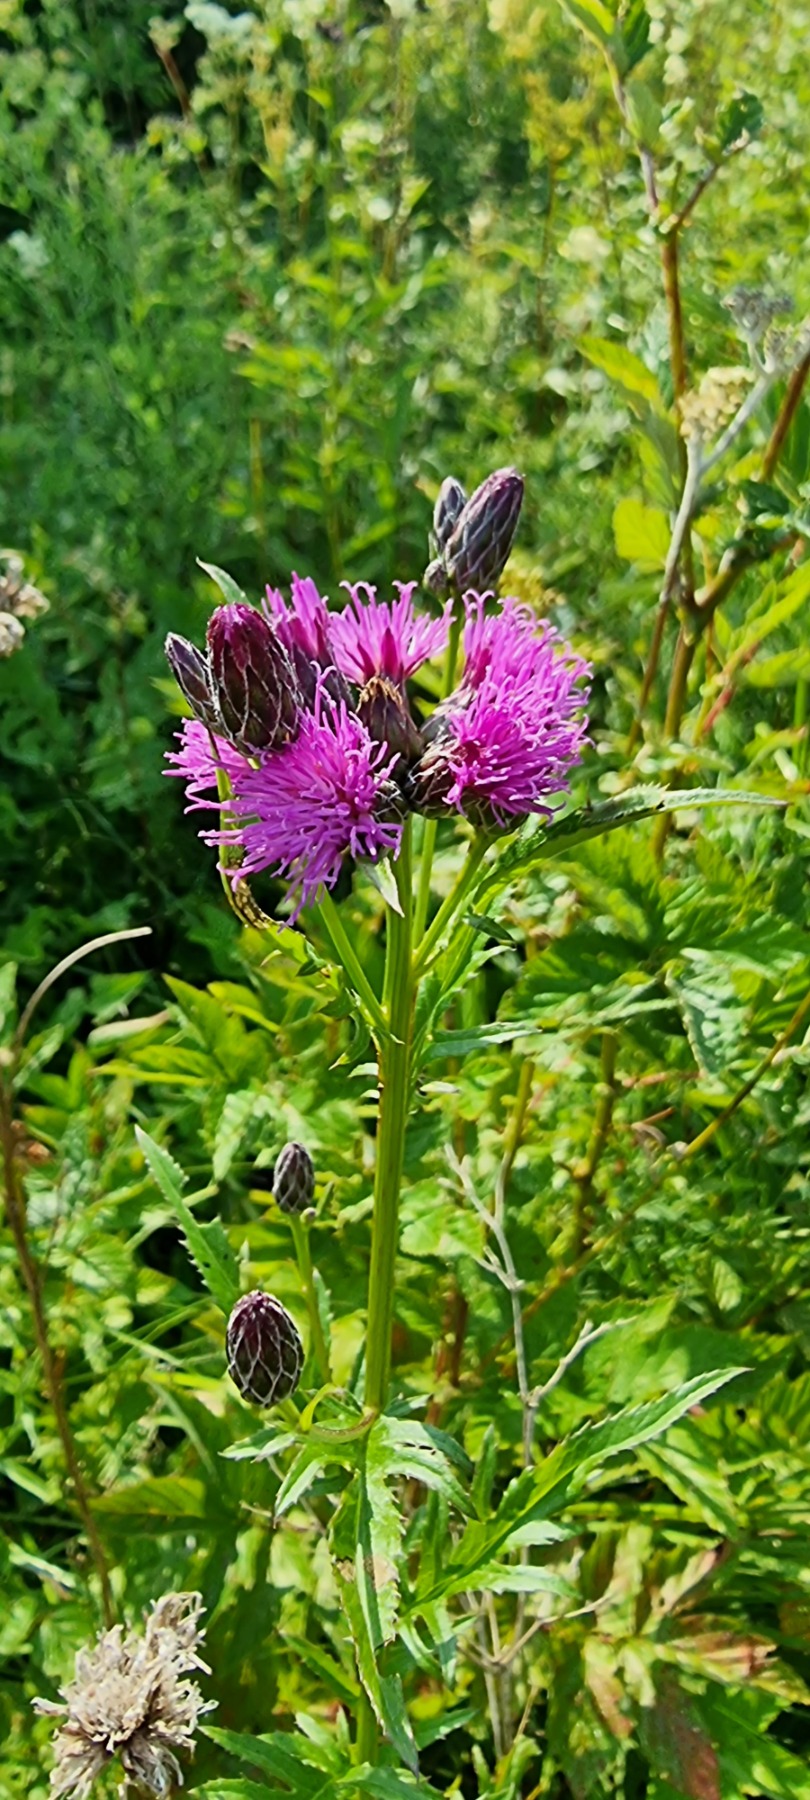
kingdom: Plantae
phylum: Tracheophyta
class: Magnoliopsida
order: Asterales
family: Asteraceae
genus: Serratula
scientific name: Serratula tinctoria
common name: Eng-skær
